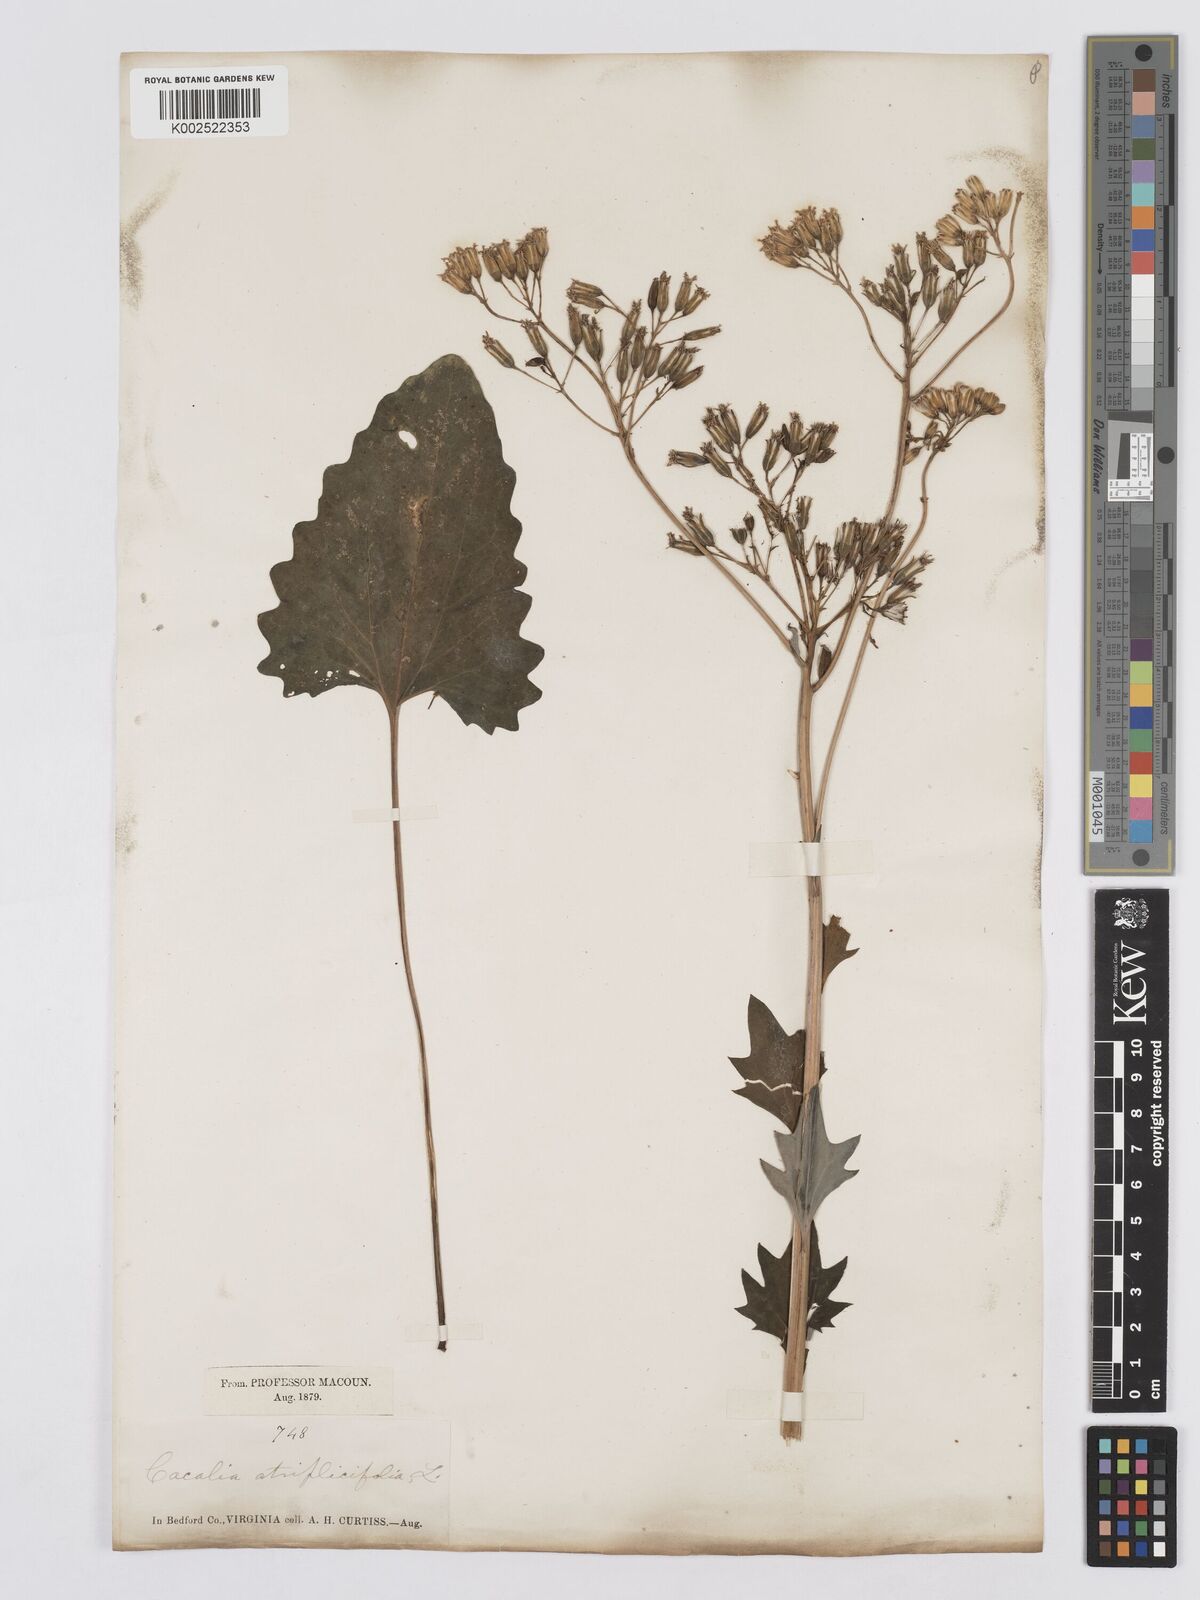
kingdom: Plantae
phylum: Tracheophyta
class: Magnoliopsida
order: Asterales
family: Asteraceae
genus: Arnoglossum
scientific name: Arnoglossum atriplicifolium
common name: Pale indian-plantain
